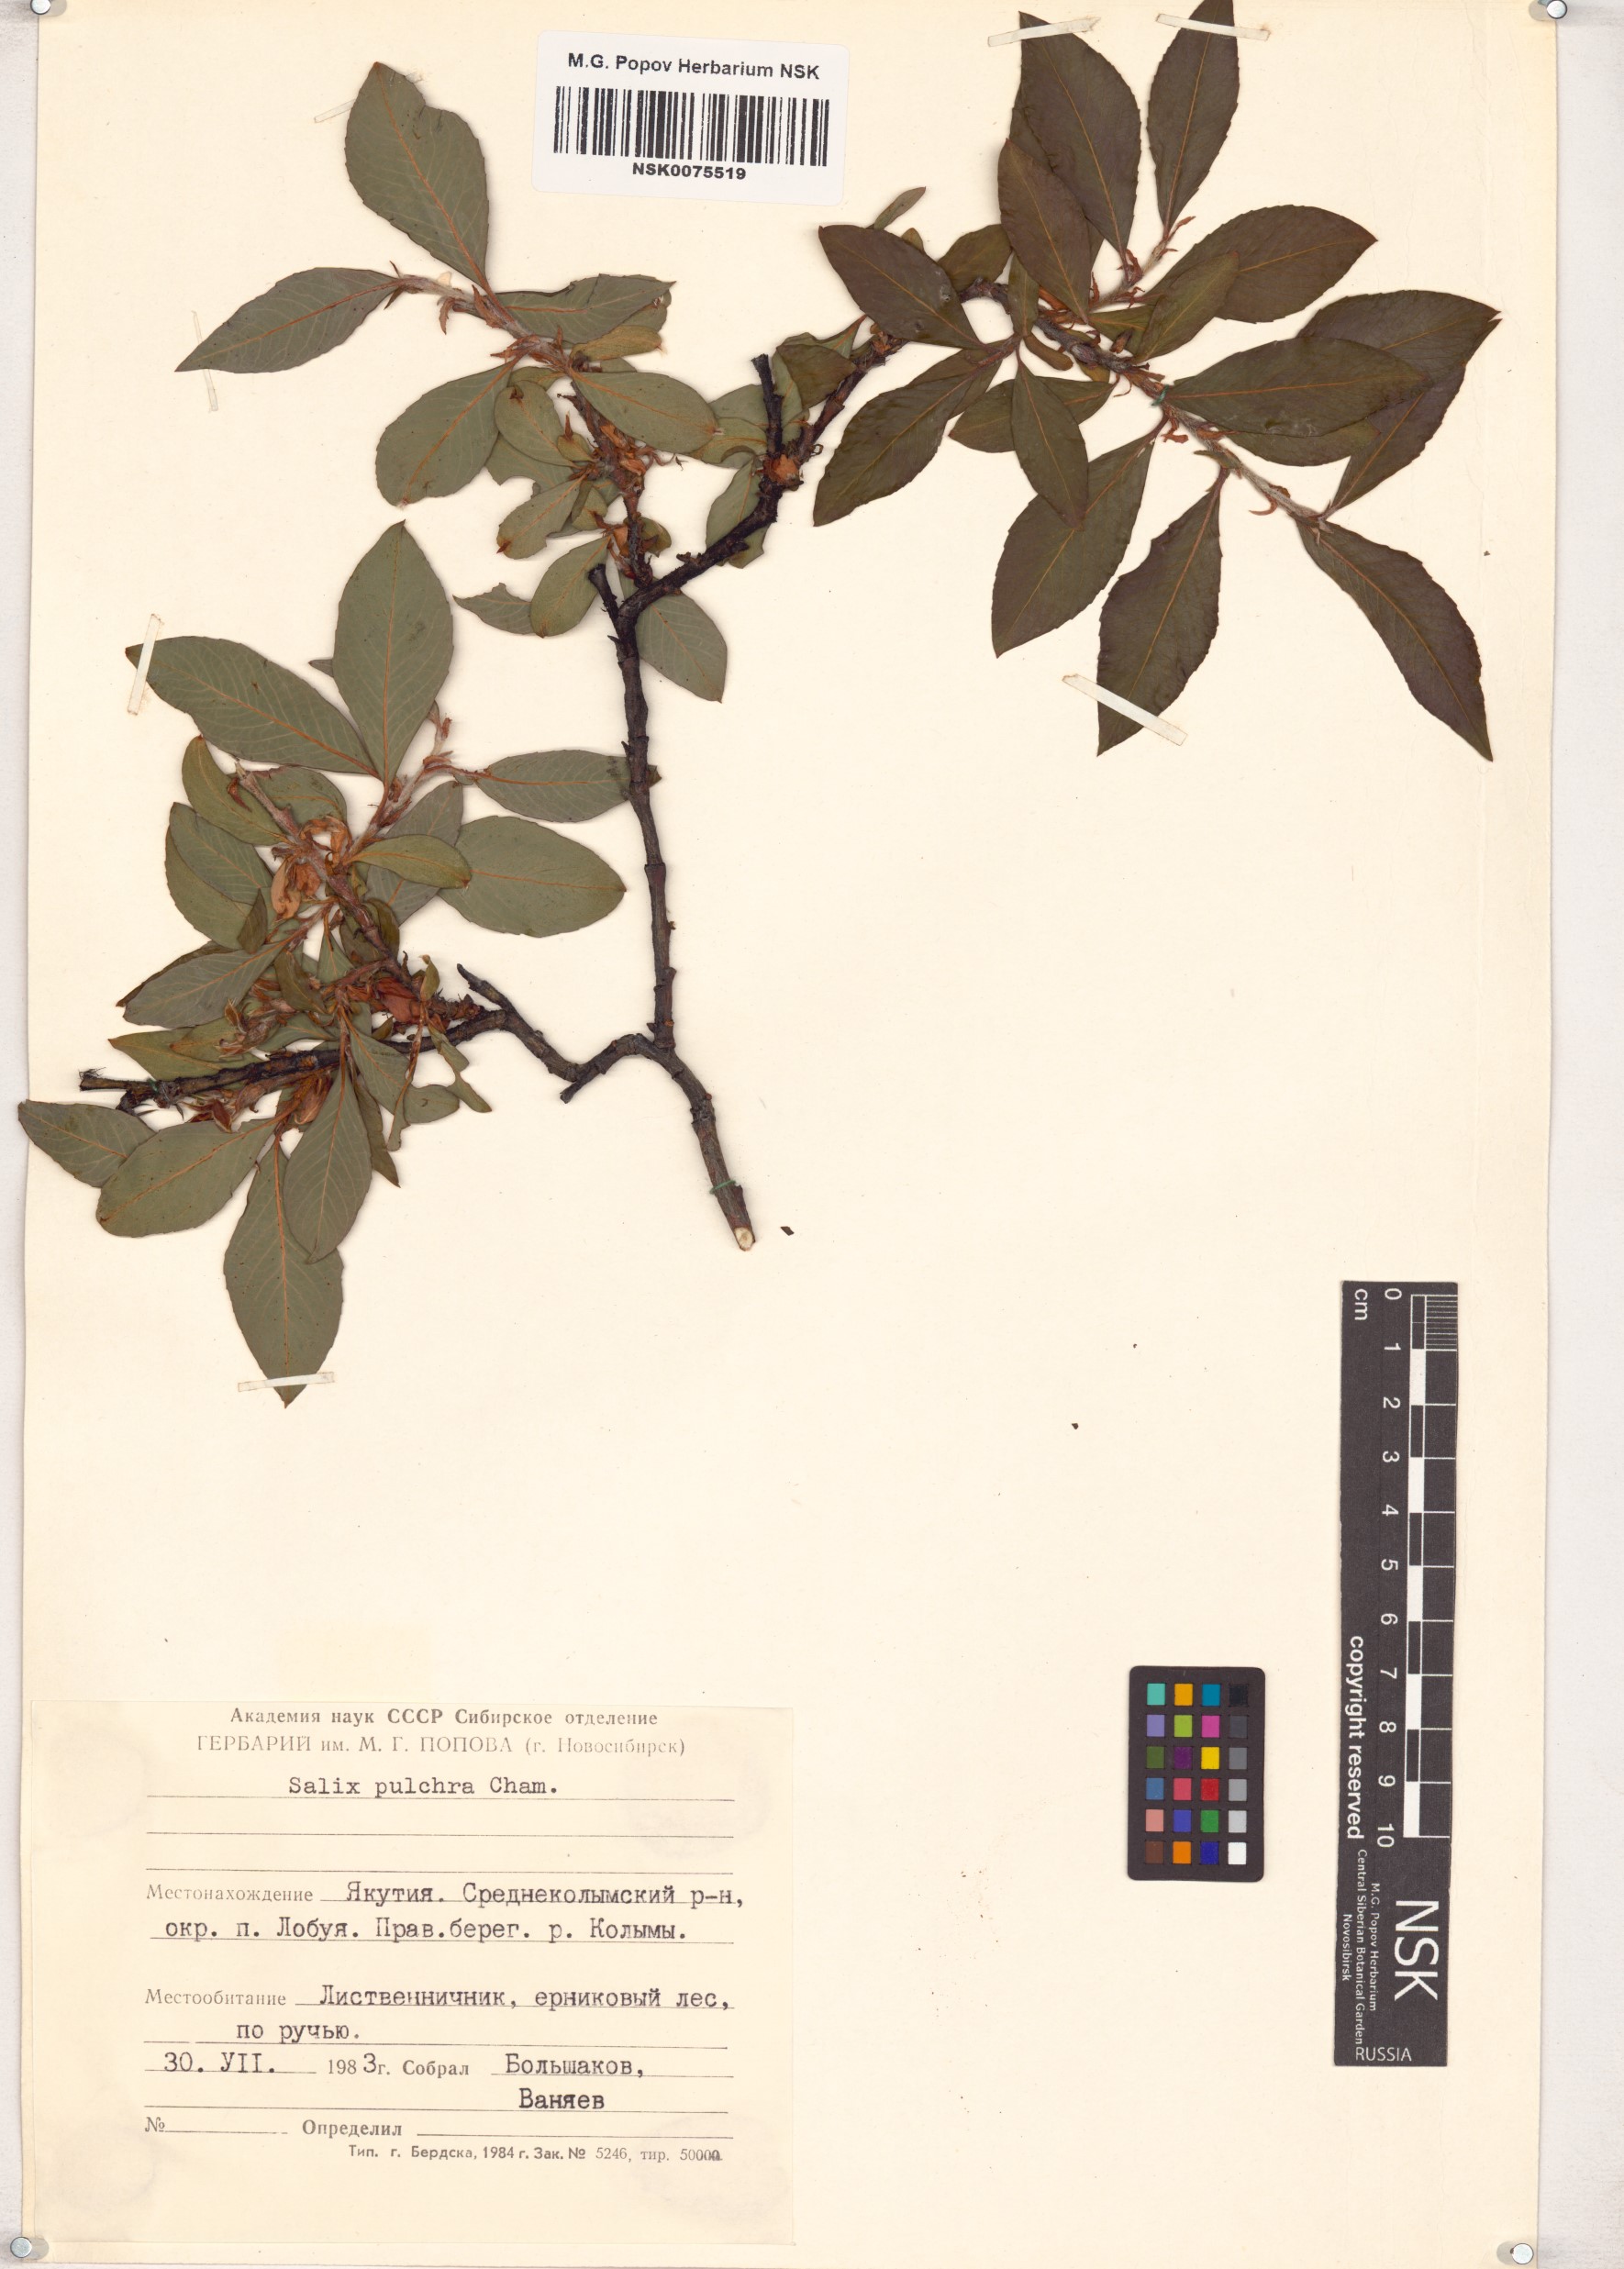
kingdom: Plantae
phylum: Tracheophyta
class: Magnoliopsida
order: Malpighiales
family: Salicaceae
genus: Salix
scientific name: Salix pulchra
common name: Diamond-leaved willow
